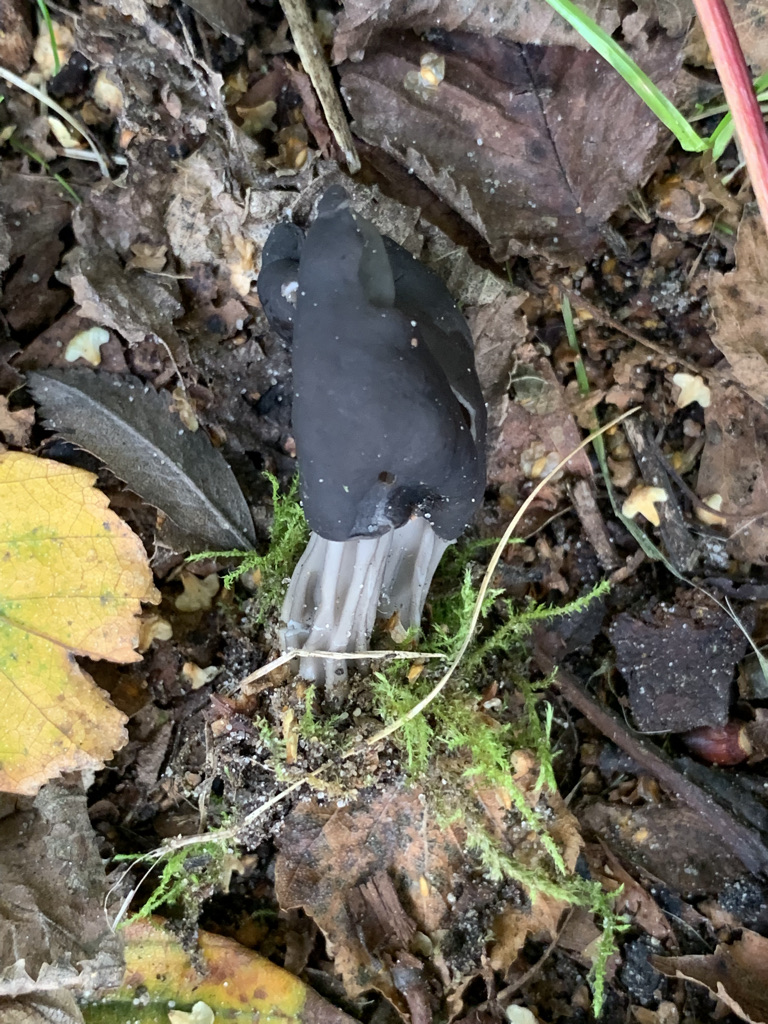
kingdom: Fungi
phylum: Ascomycota
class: Pezizomycetes
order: Pezizales
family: Helvellaceae
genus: Helvella
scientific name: Helvella lacunosa
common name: grubet foldhat
